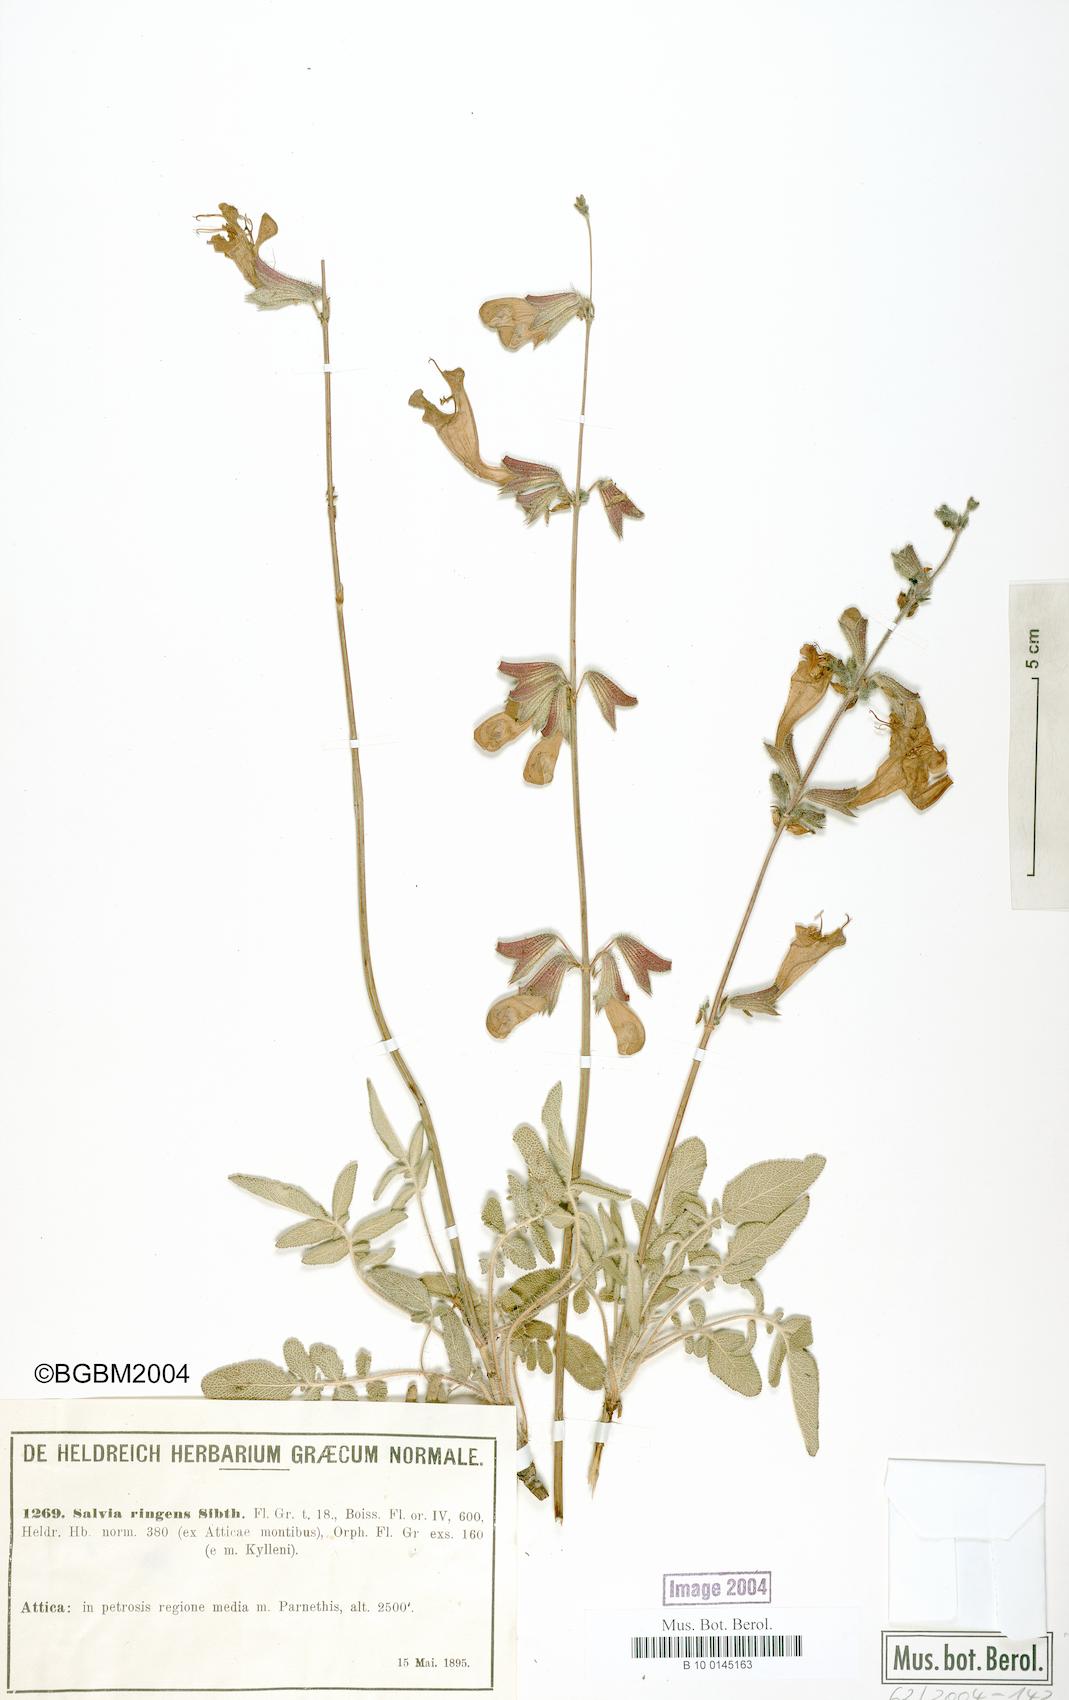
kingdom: Plantae
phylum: Tracheophyta
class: Magnoliopsida
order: Lamiales
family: Lamiaceae
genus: Salvia
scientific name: Salvia ringens
